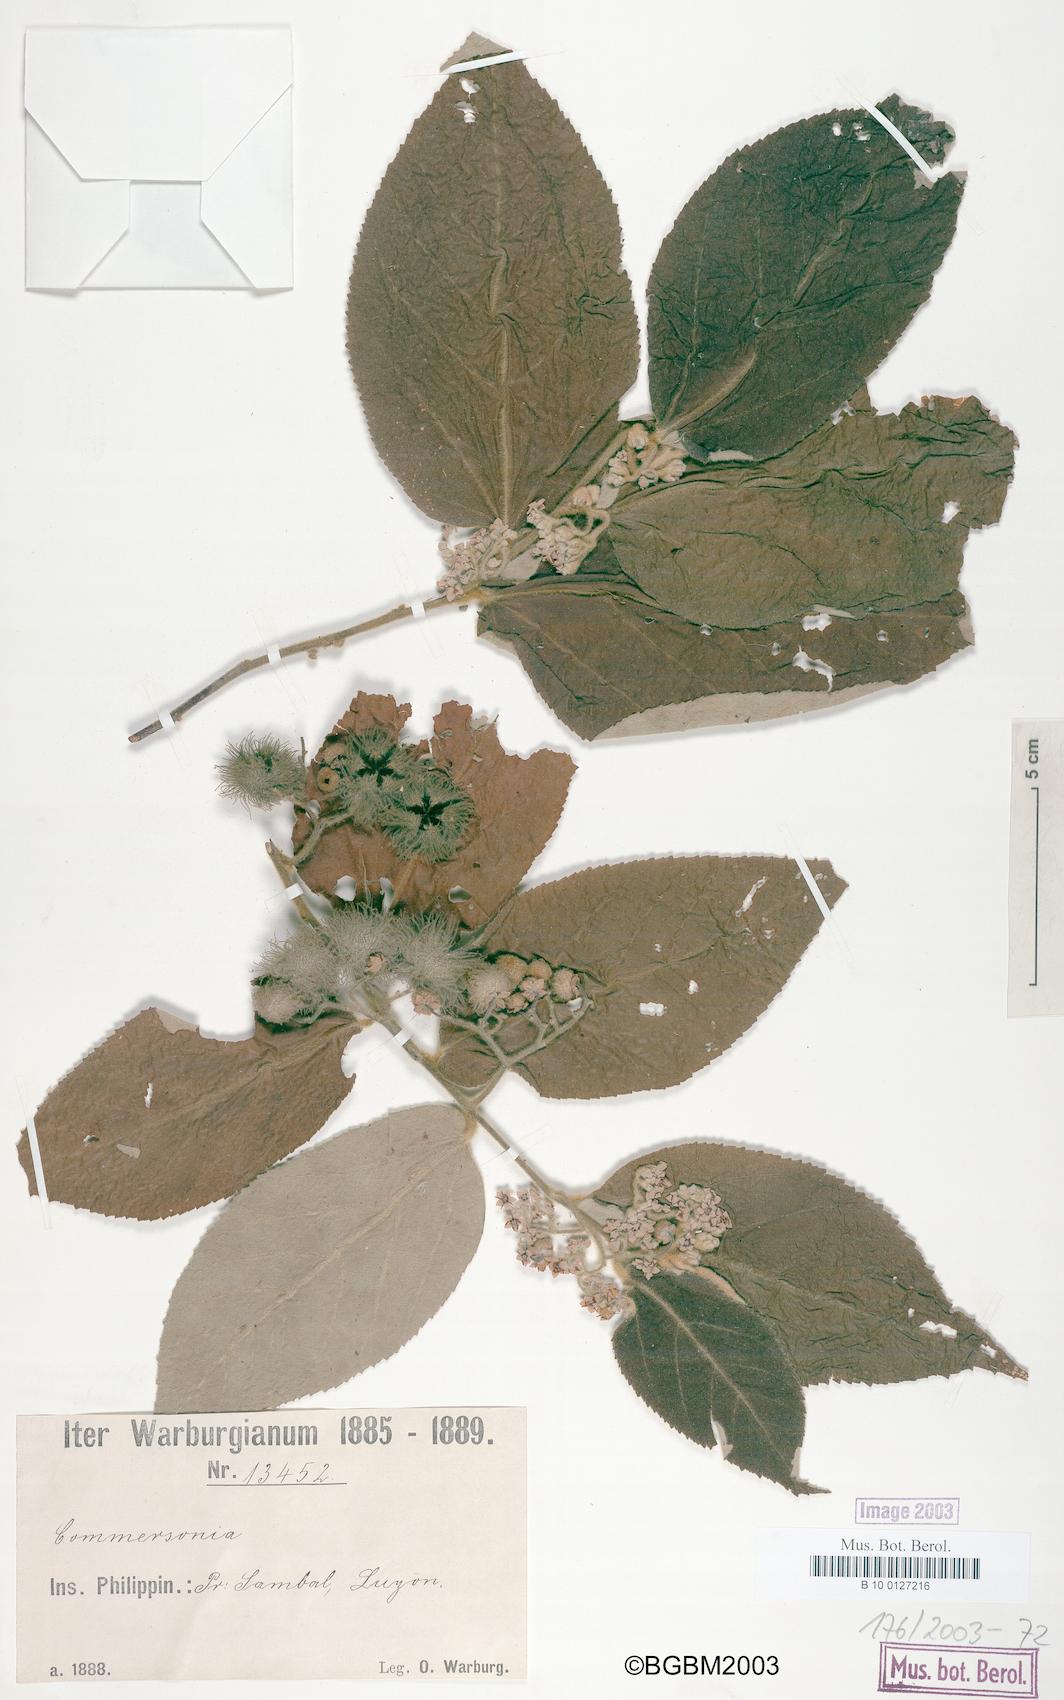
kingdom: Plantae
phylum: Tracheophyta
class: Magnoliopsida
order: Malvales
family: Malvaceae
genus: Commersonia
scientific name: Commersonia
